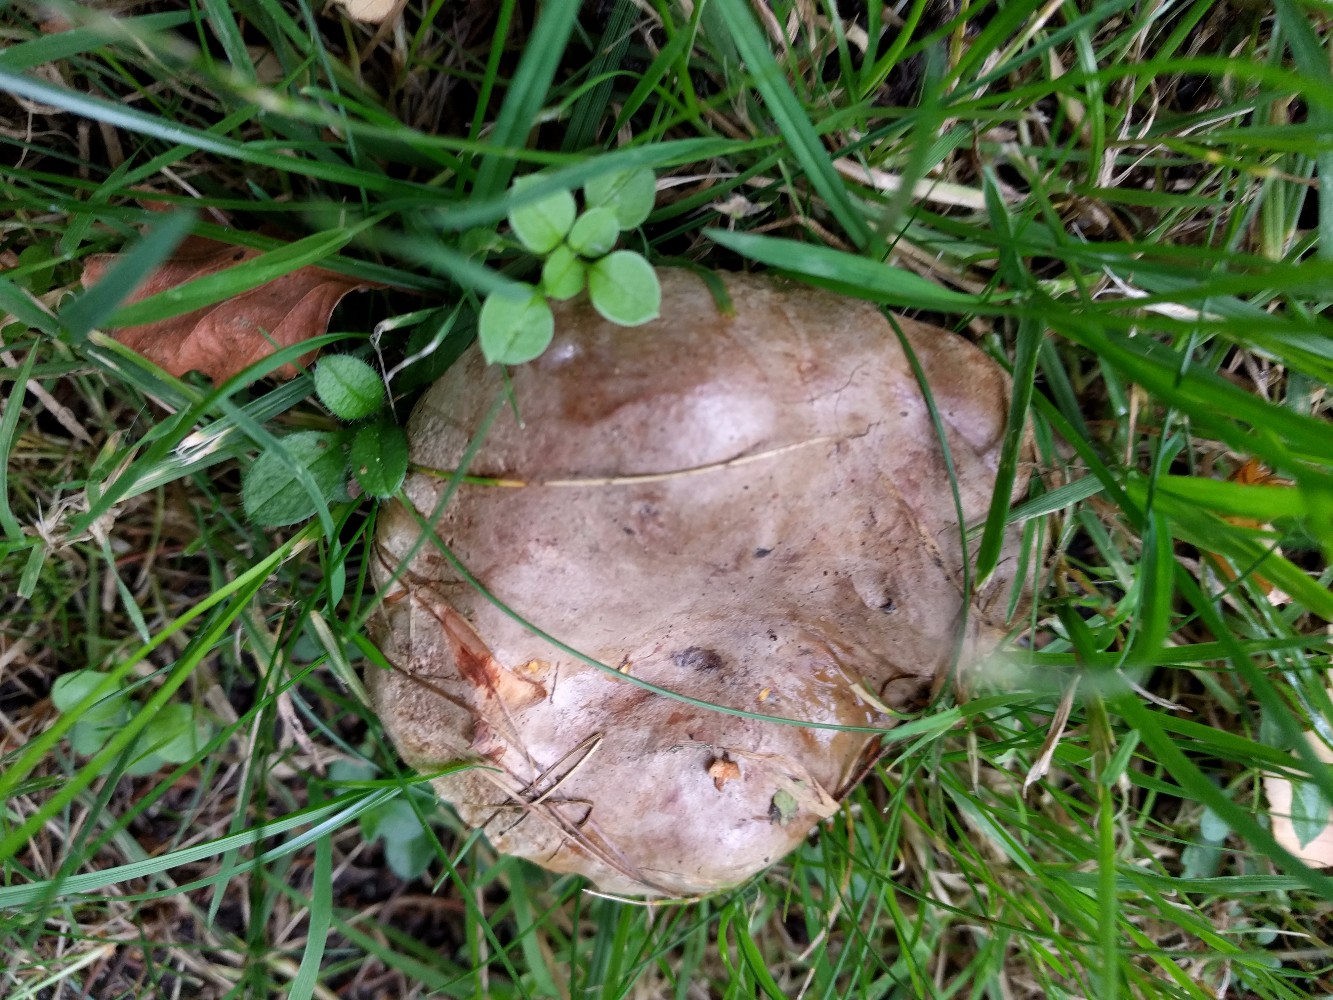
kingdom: Fungi
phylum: Basidiomycota
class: Agaricomycetes
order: Boletales
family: Paxillaceae
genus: Paxillus
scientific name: Paxillus ammoniavirescens
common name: olivensporet netbladhat
